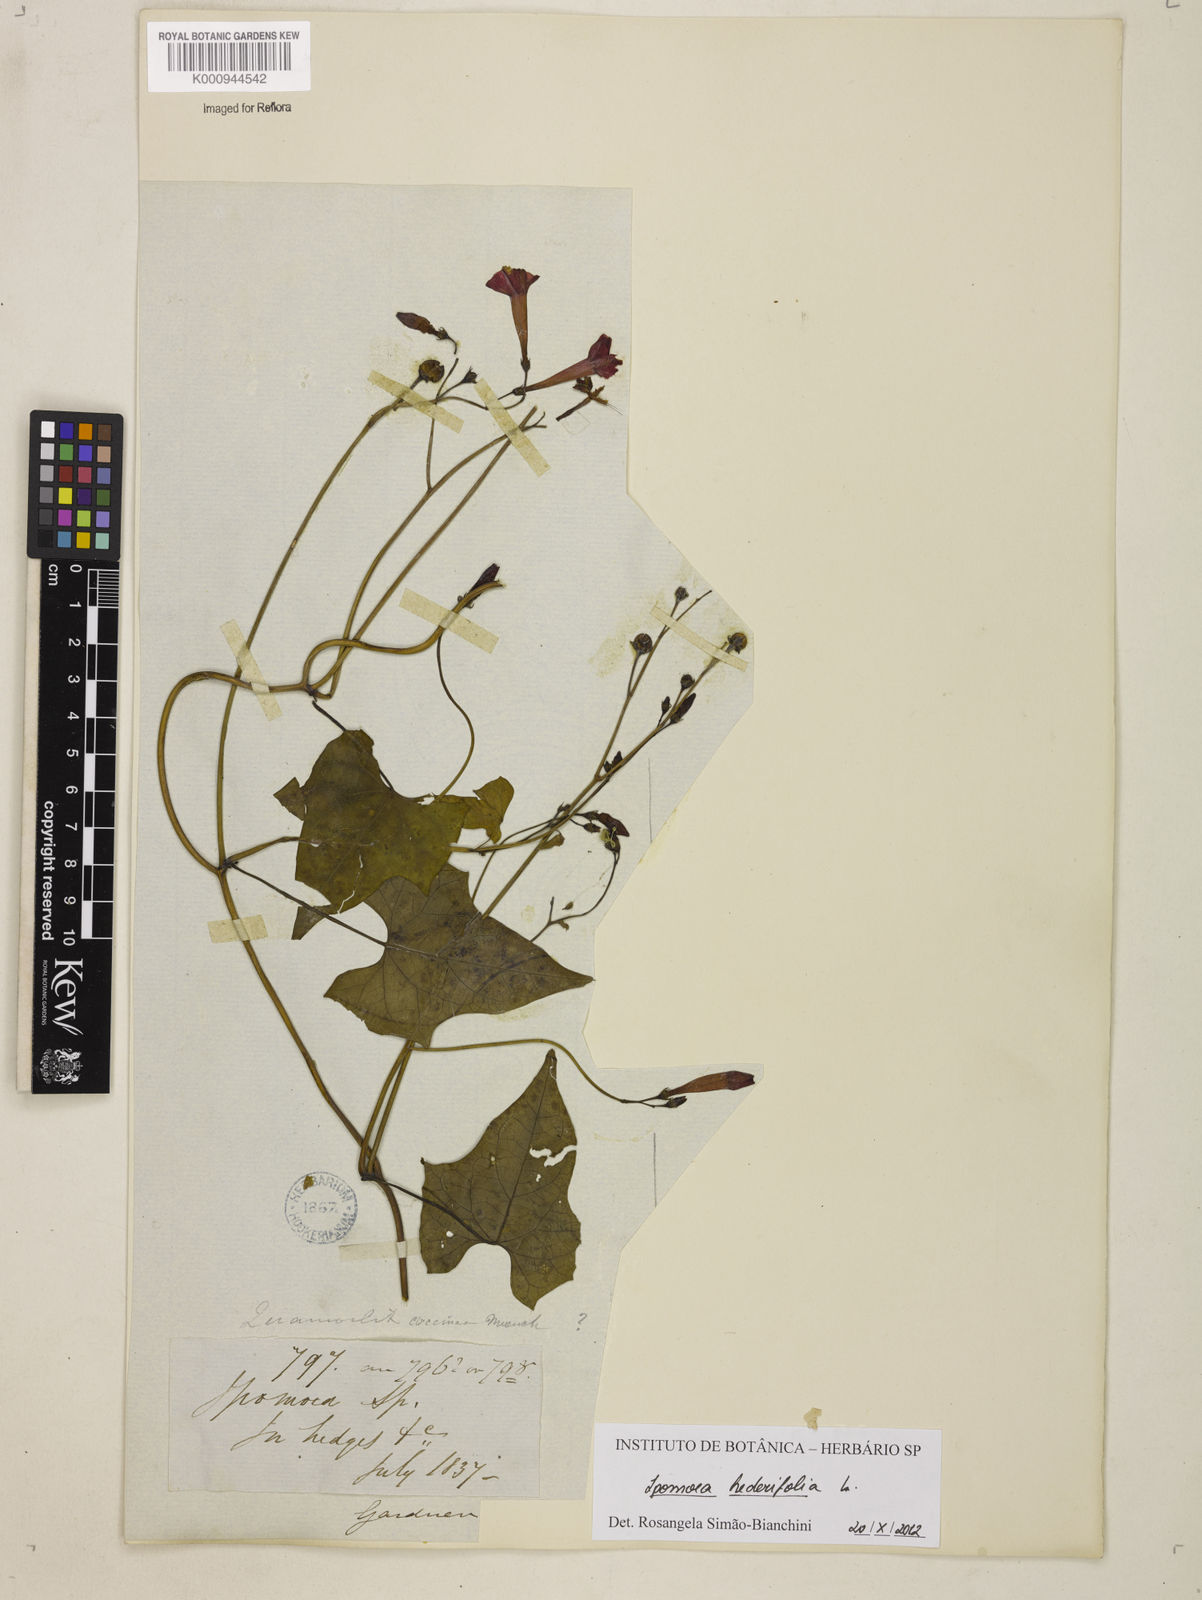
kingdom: Plantae
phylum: Tracheophyta
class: Magnoliopsida
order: Solanales
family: Convolvulaceae
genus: Ipomoea
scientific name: Ipomoea hederifolia
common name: Ivy-leaf morning-glory
